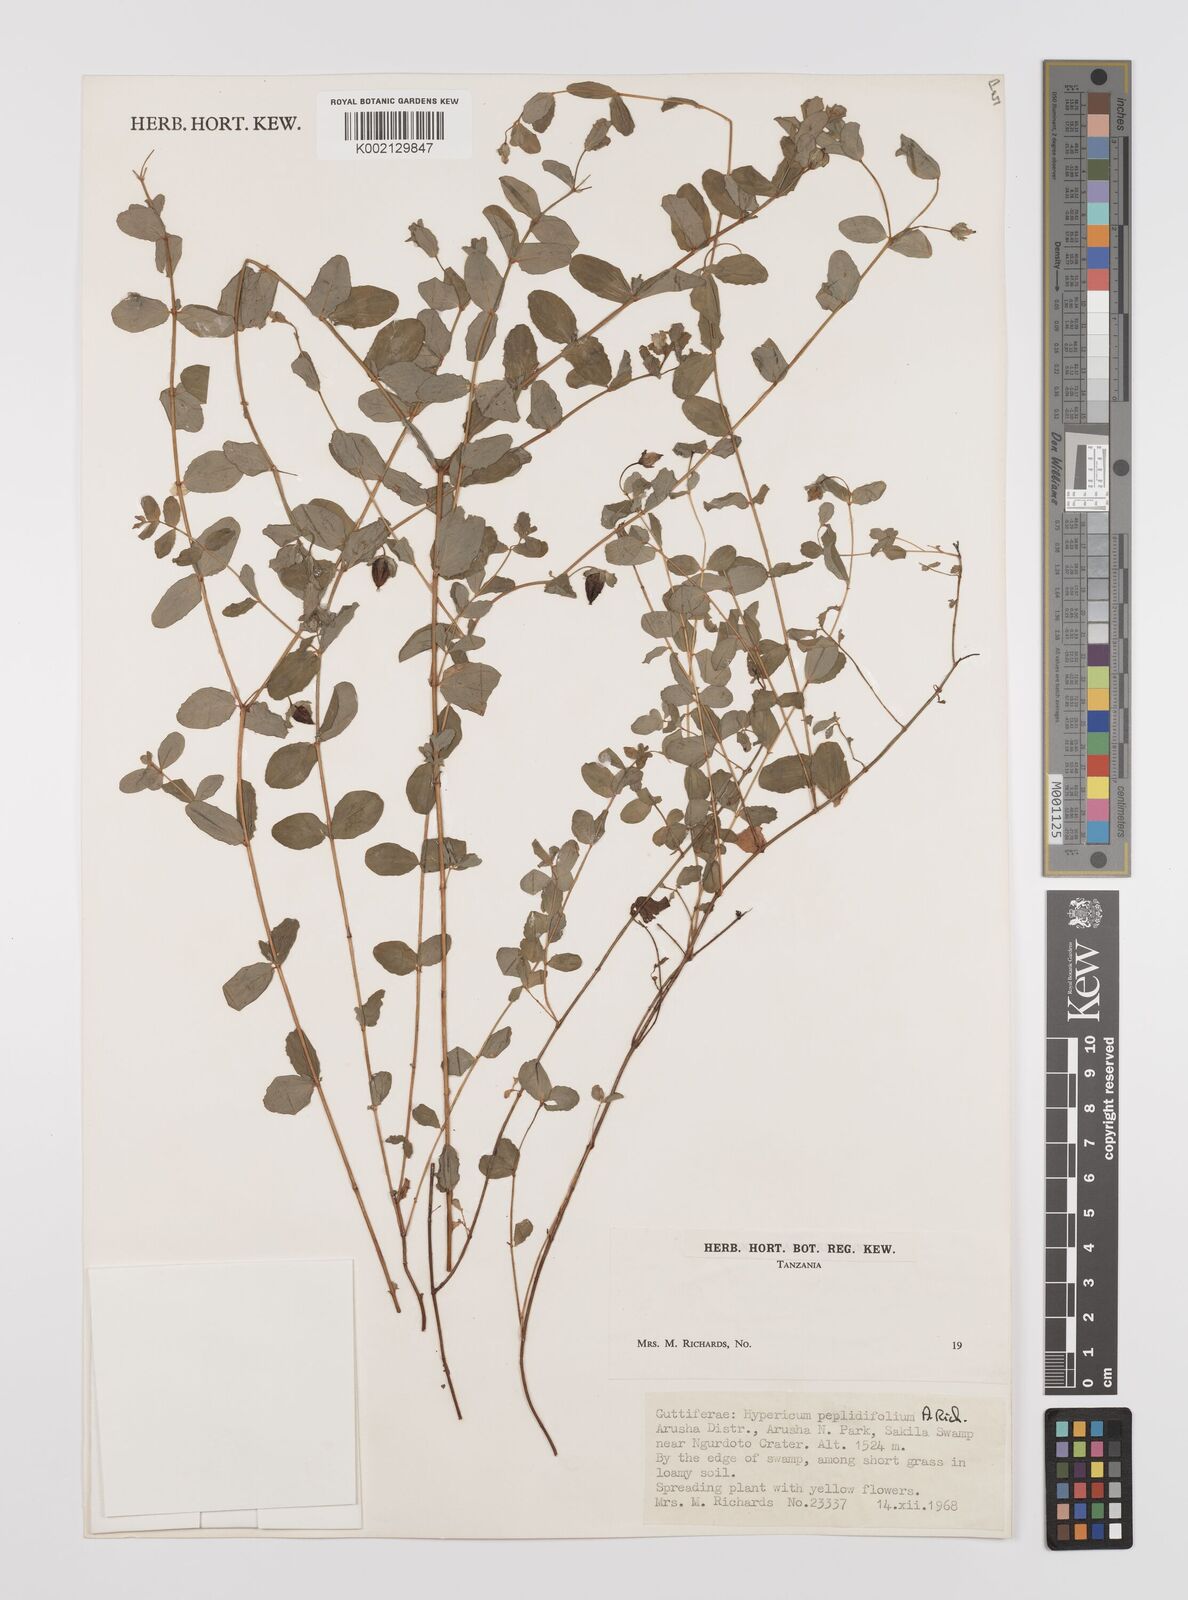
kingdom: Plantae
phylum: Tracheophyta
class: Magnoliopsida
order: Malpighiales
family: Hypericaceae
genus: Hypericum
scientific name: Hypericum peplidifolium
